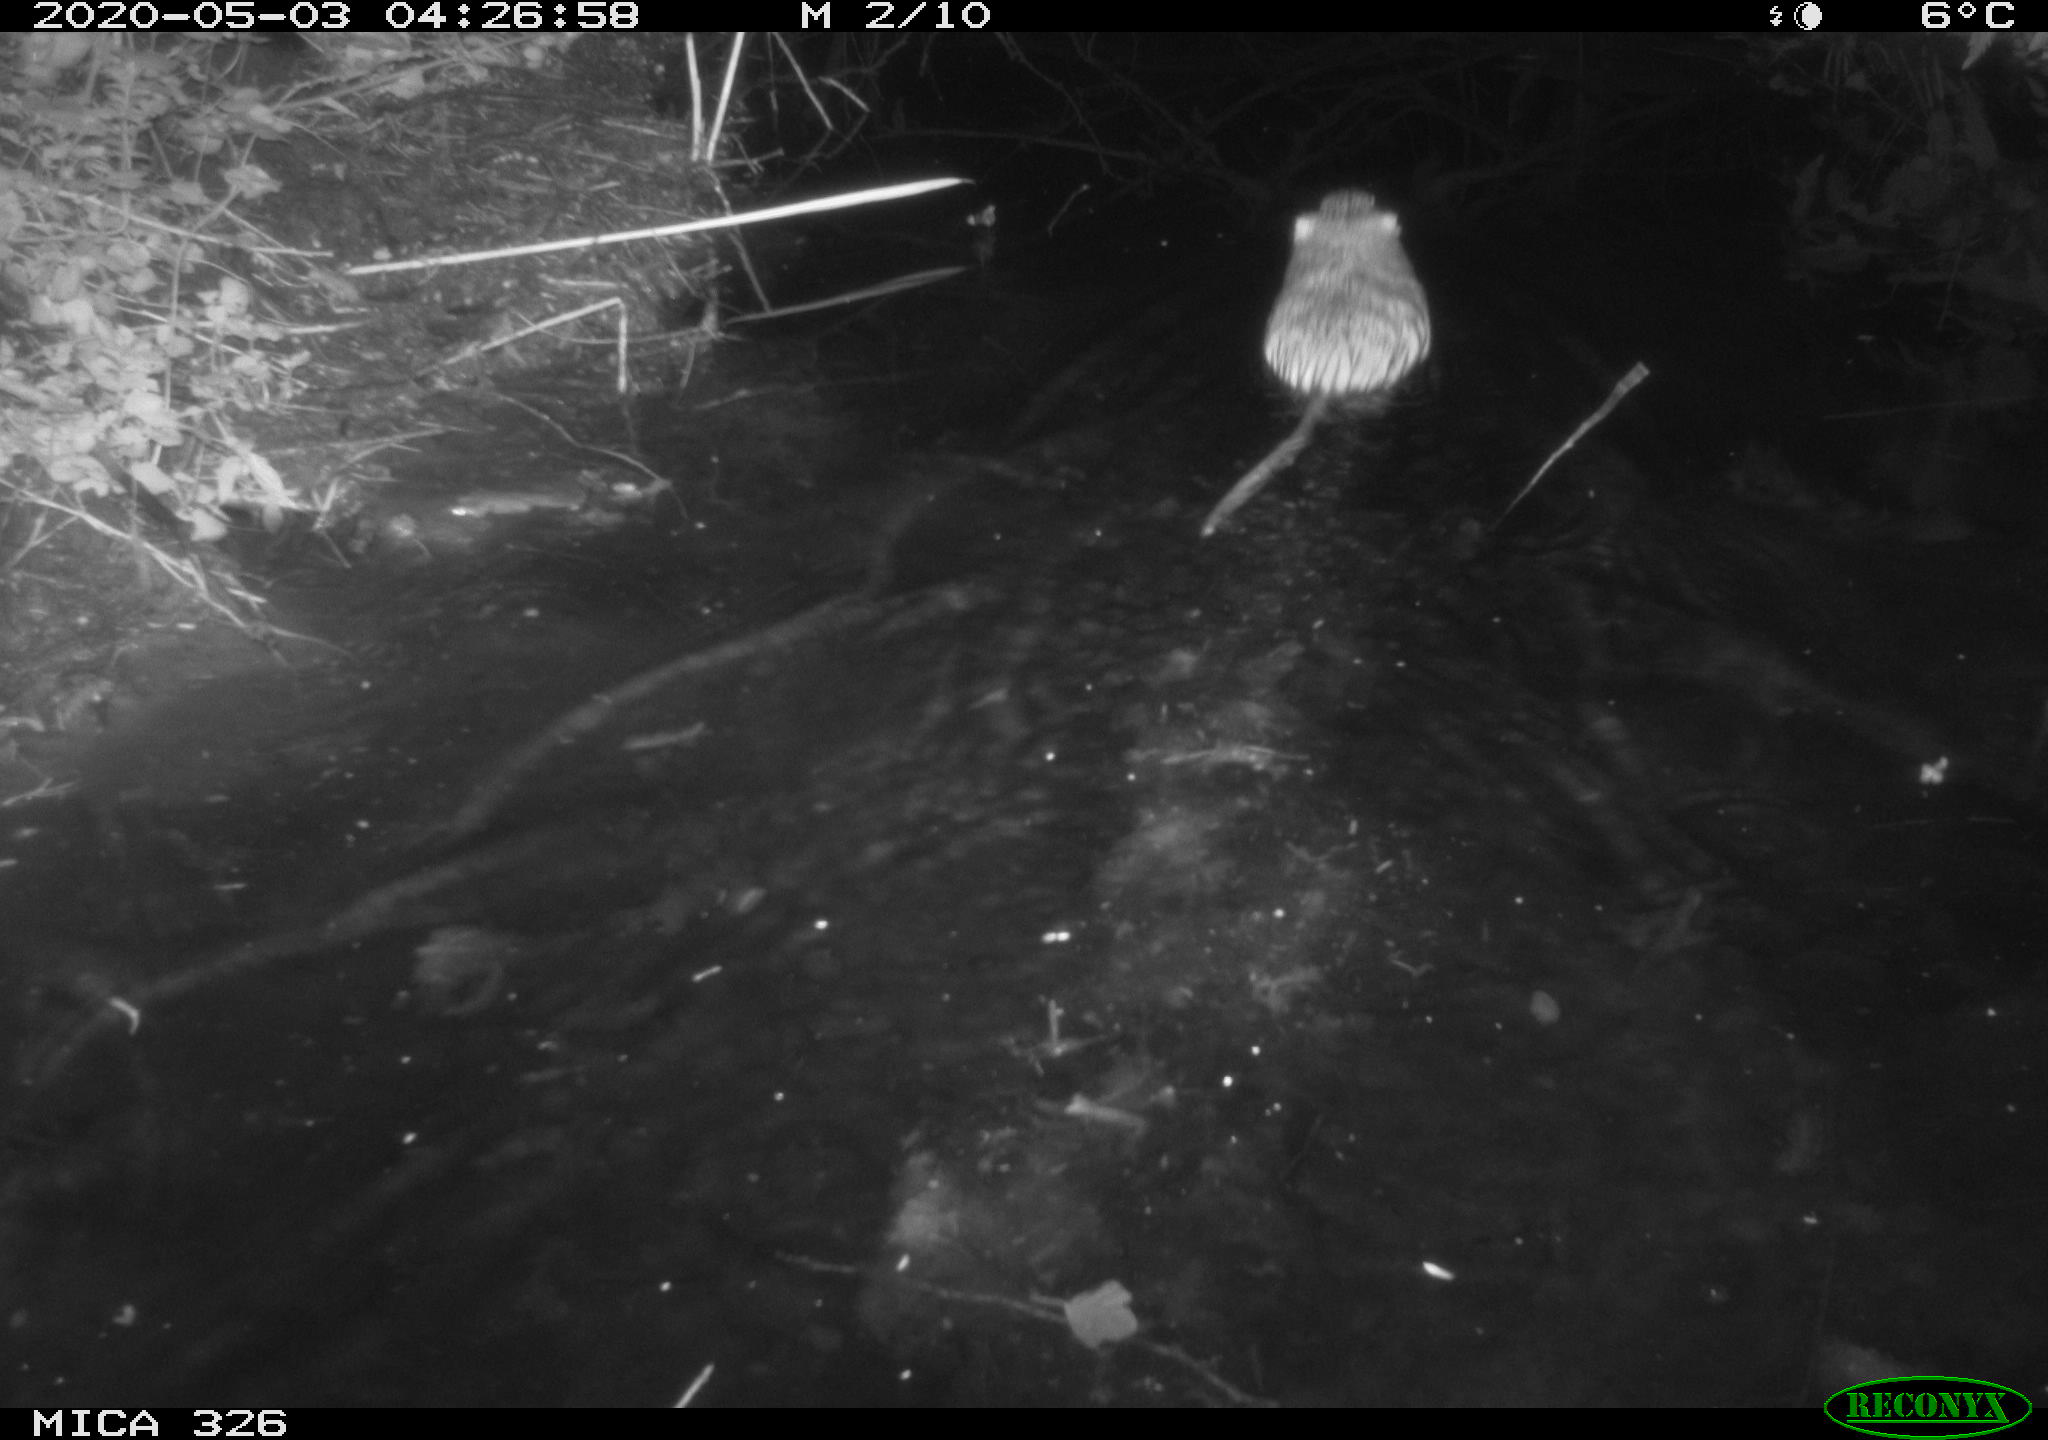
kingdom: Animalia
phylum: Chordata
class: Mammalia
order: Rodentia
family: Myocastoridae
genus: Myocastor
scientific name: Myocastor coypus
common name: Coypu
